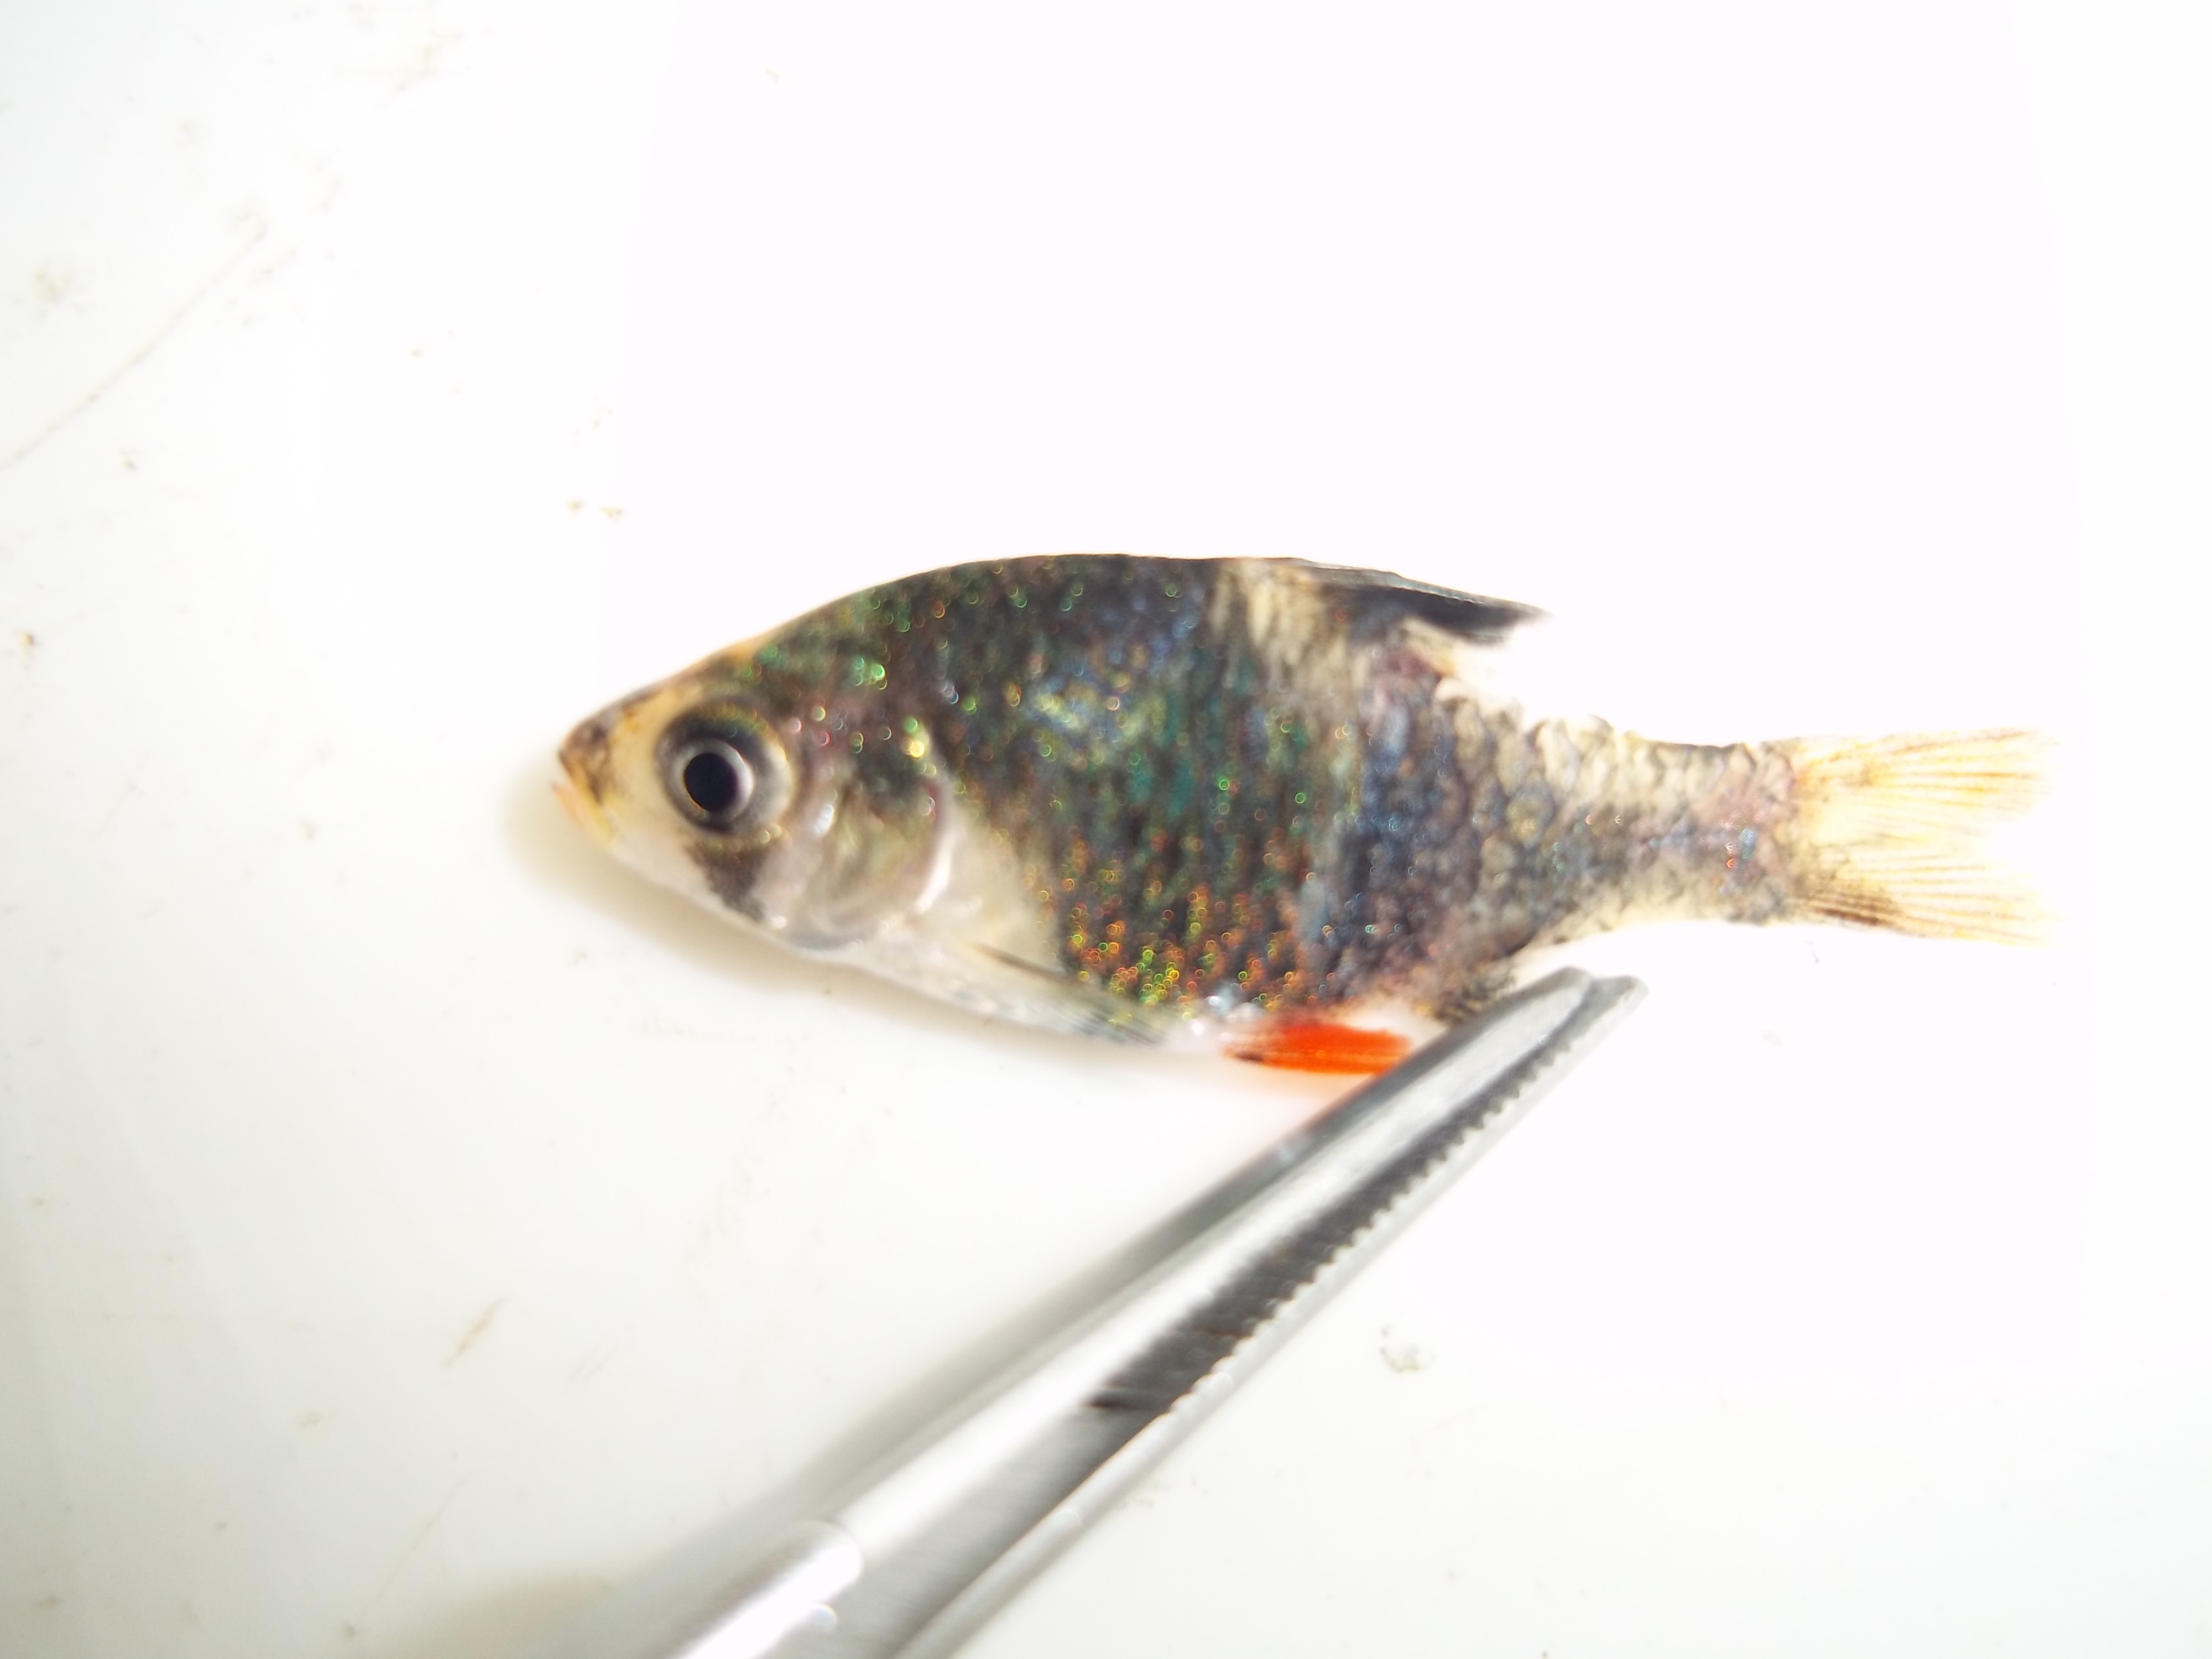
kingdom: Animalia
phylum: Chordata
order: Cypriniformes
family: Cyprinidae
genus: Puntigrus
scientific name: Puntigrus tetrazona
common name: Tiger barb
